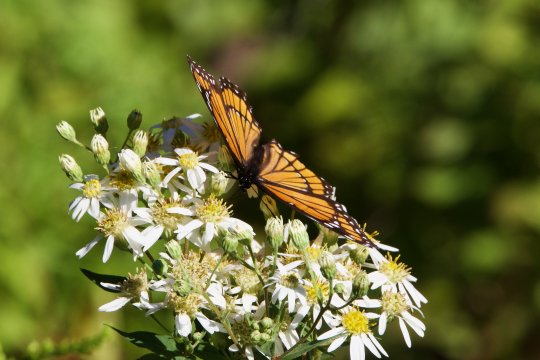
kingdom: Animalia
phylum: Arthropoda
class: Insecta
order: Lepidoptera
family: Nymphalidae
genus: Limenitis
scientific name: Limenitis archippus
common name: Viceroy
